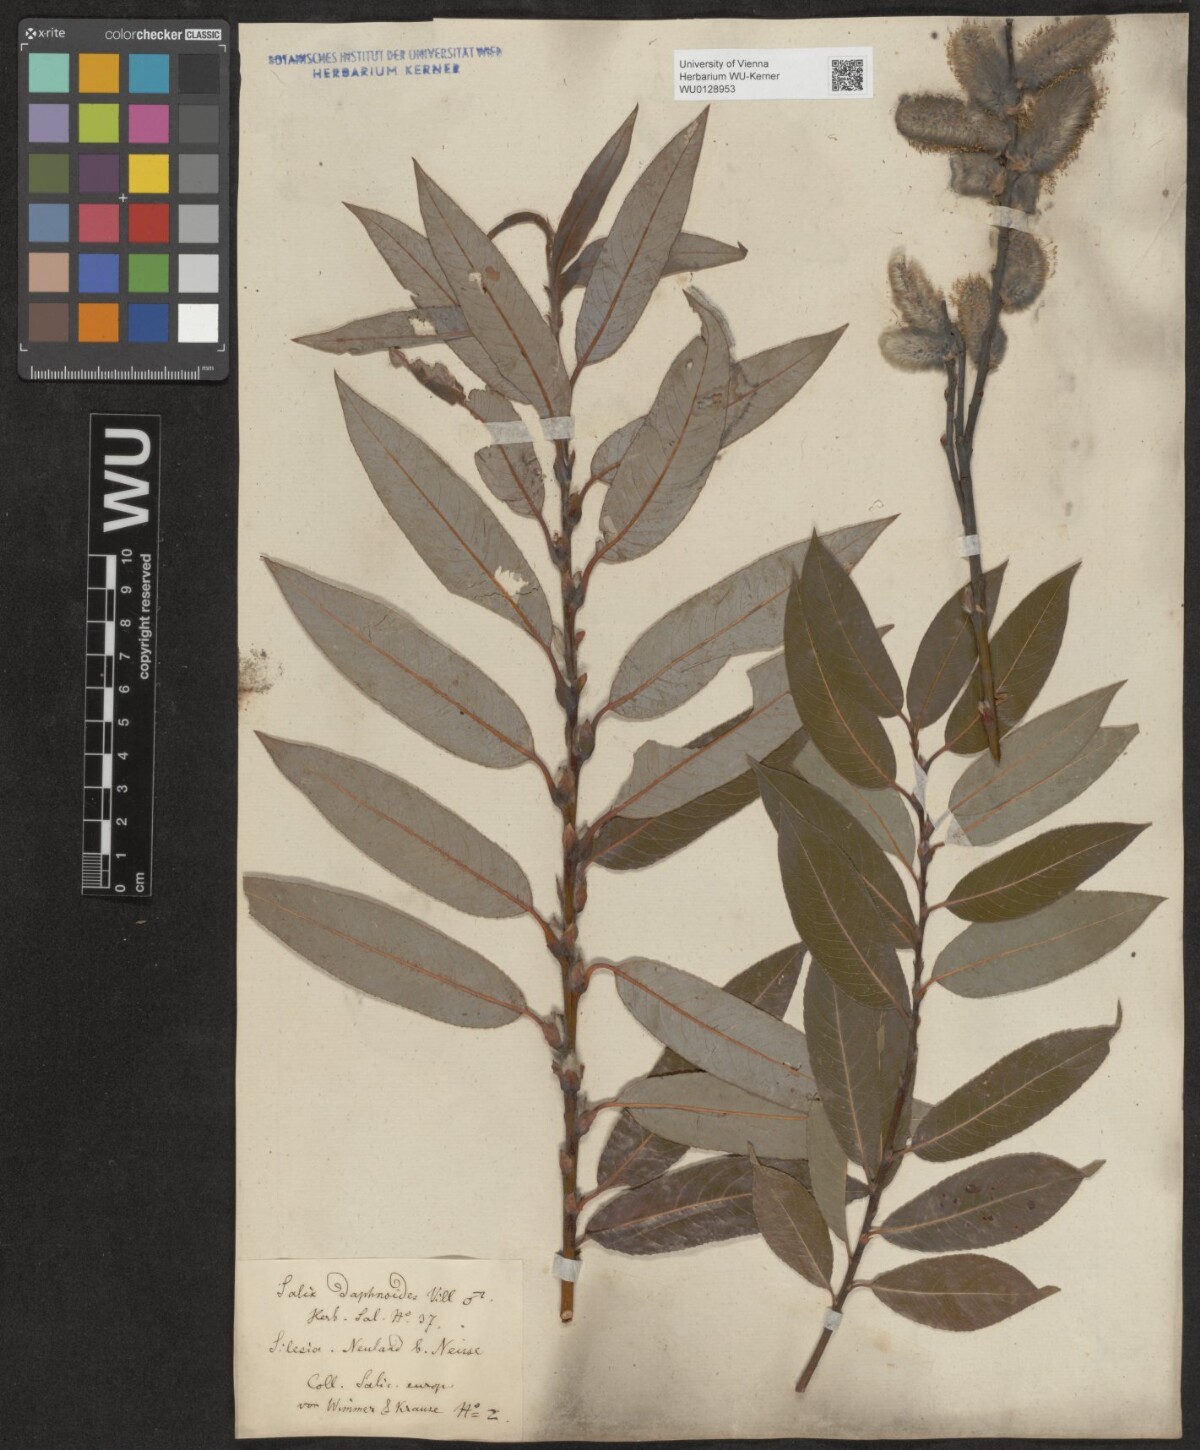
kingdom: Plantae
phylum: Tracheophyta
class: Magnoliopsida
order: Malpighiales
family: Salicaceae
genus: Salix
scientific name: Salix daphnoides
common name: European violet-willow
